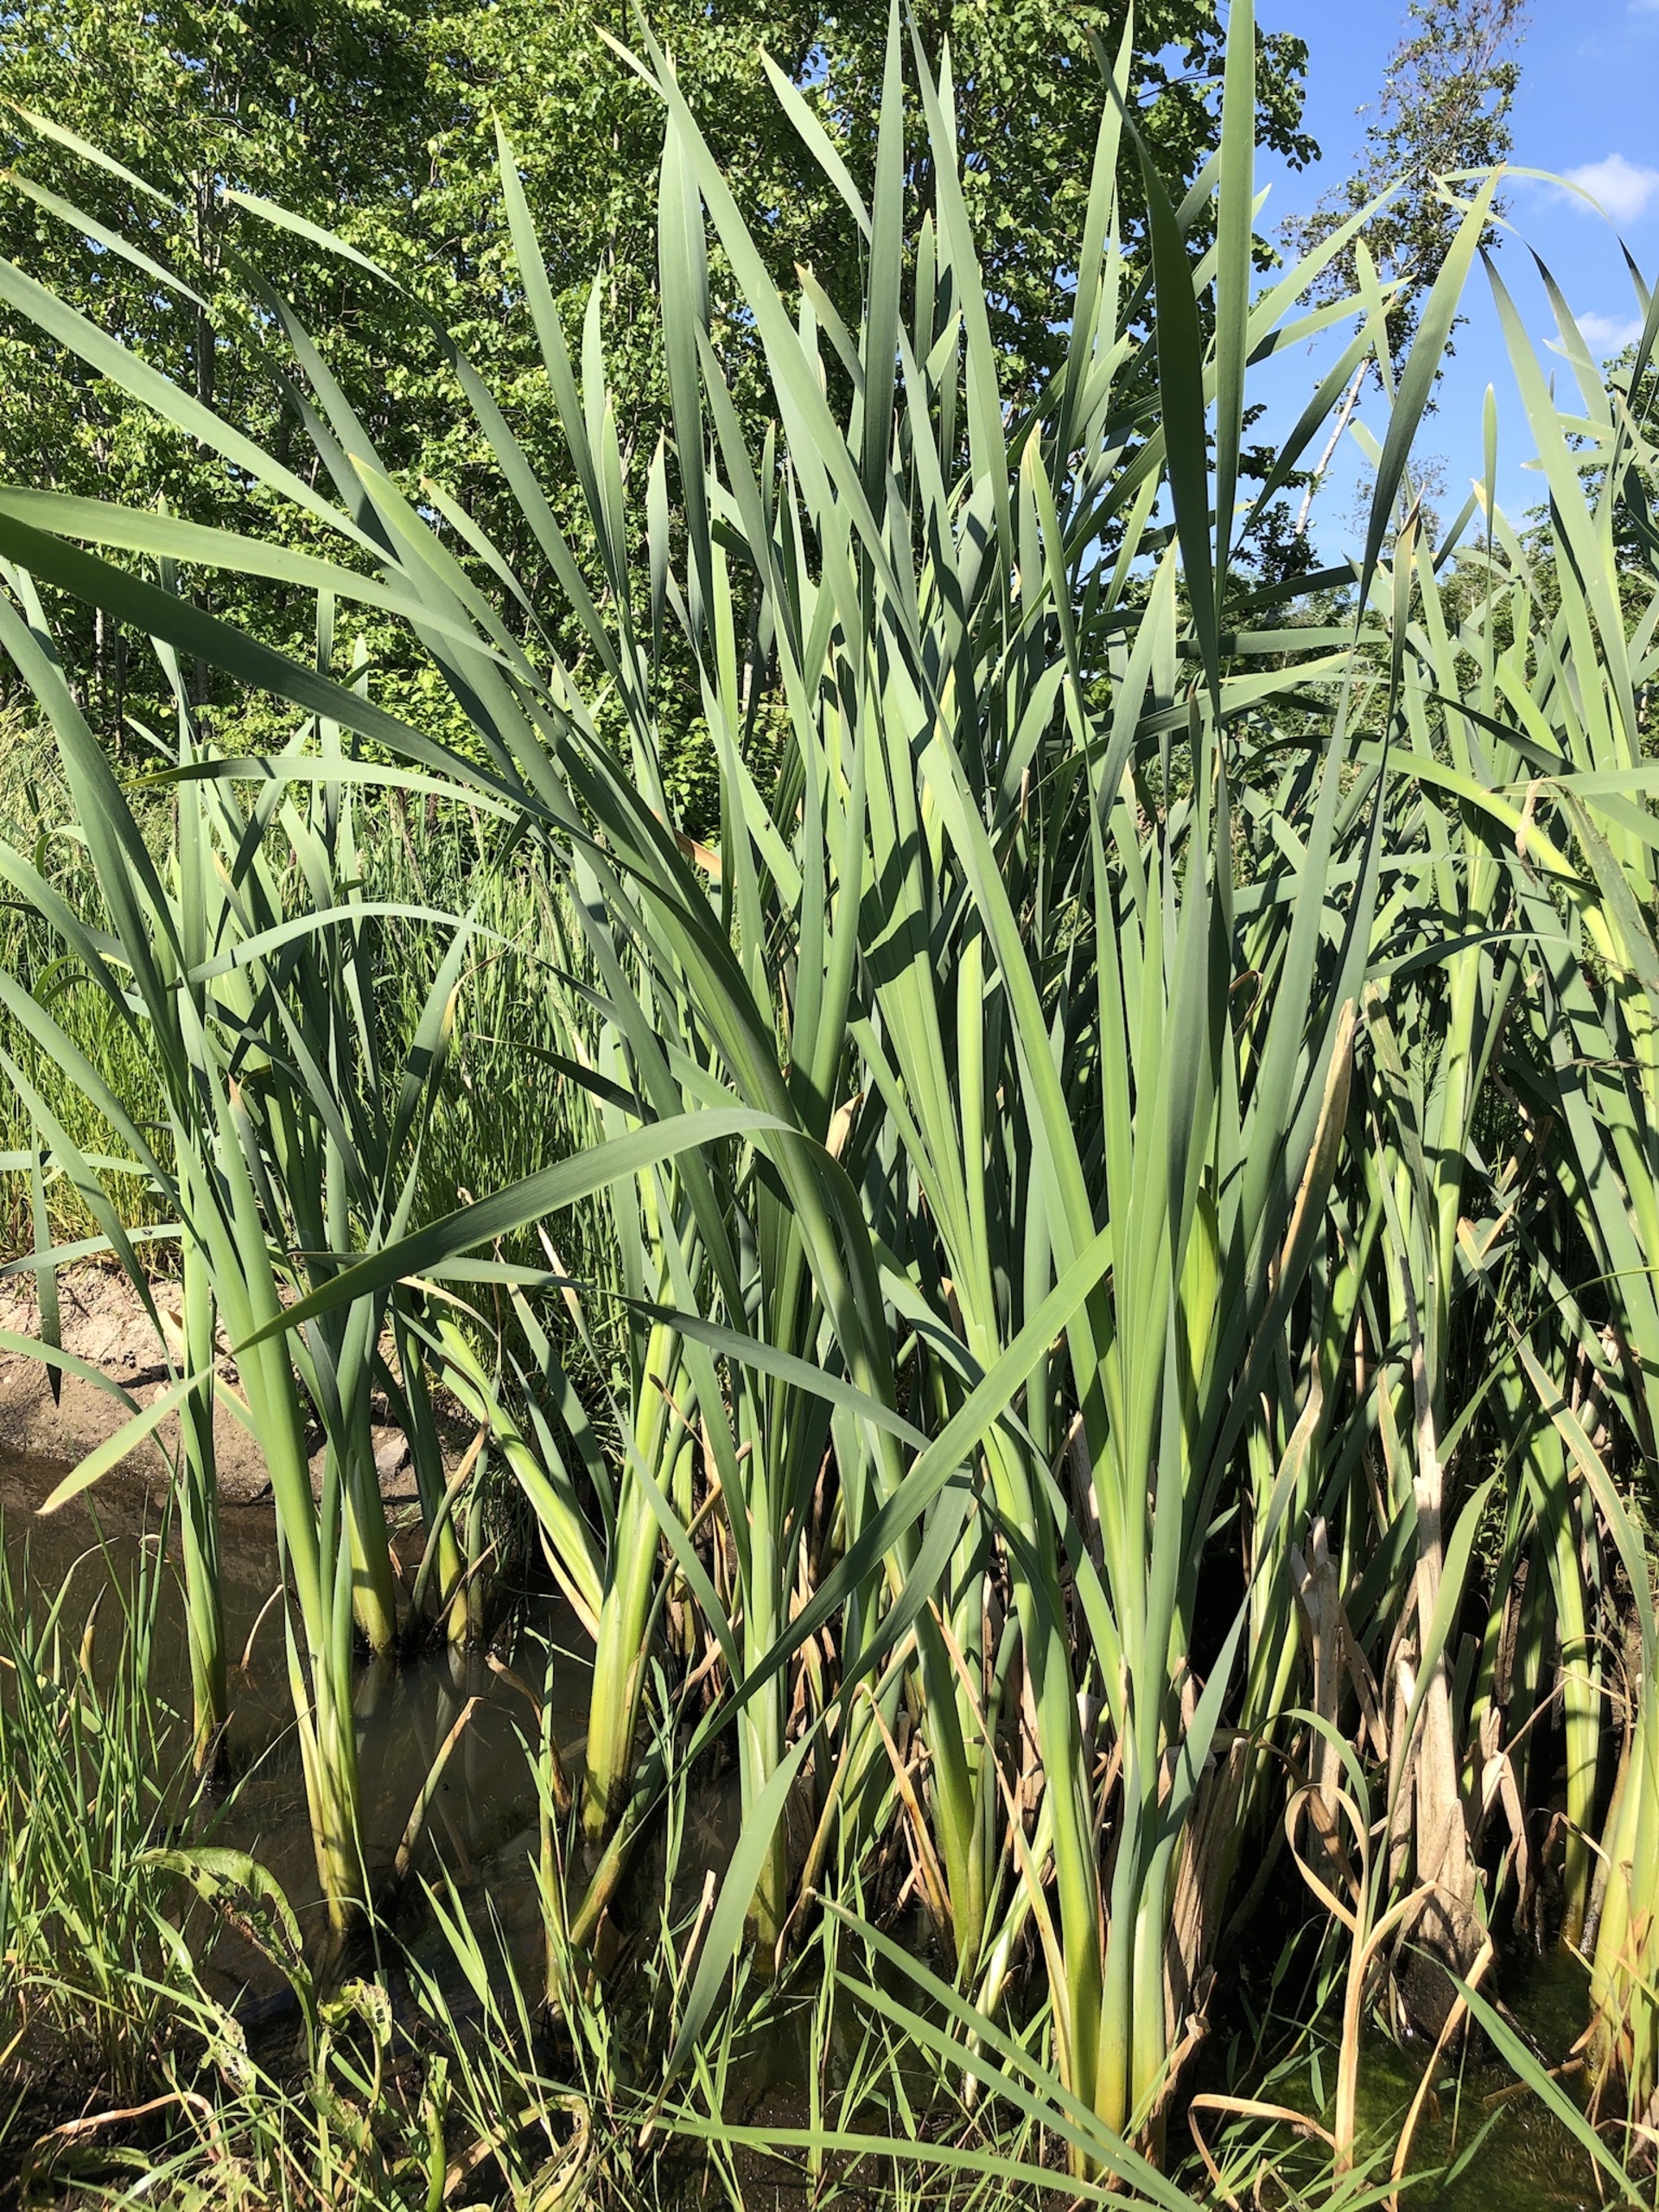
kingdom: Plantae
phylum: Tracheophyta
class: Liliopsida
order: Poales
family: Typhaceae
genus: Typha
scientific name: Typha latifolia
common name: Bredbladet dunhammer
